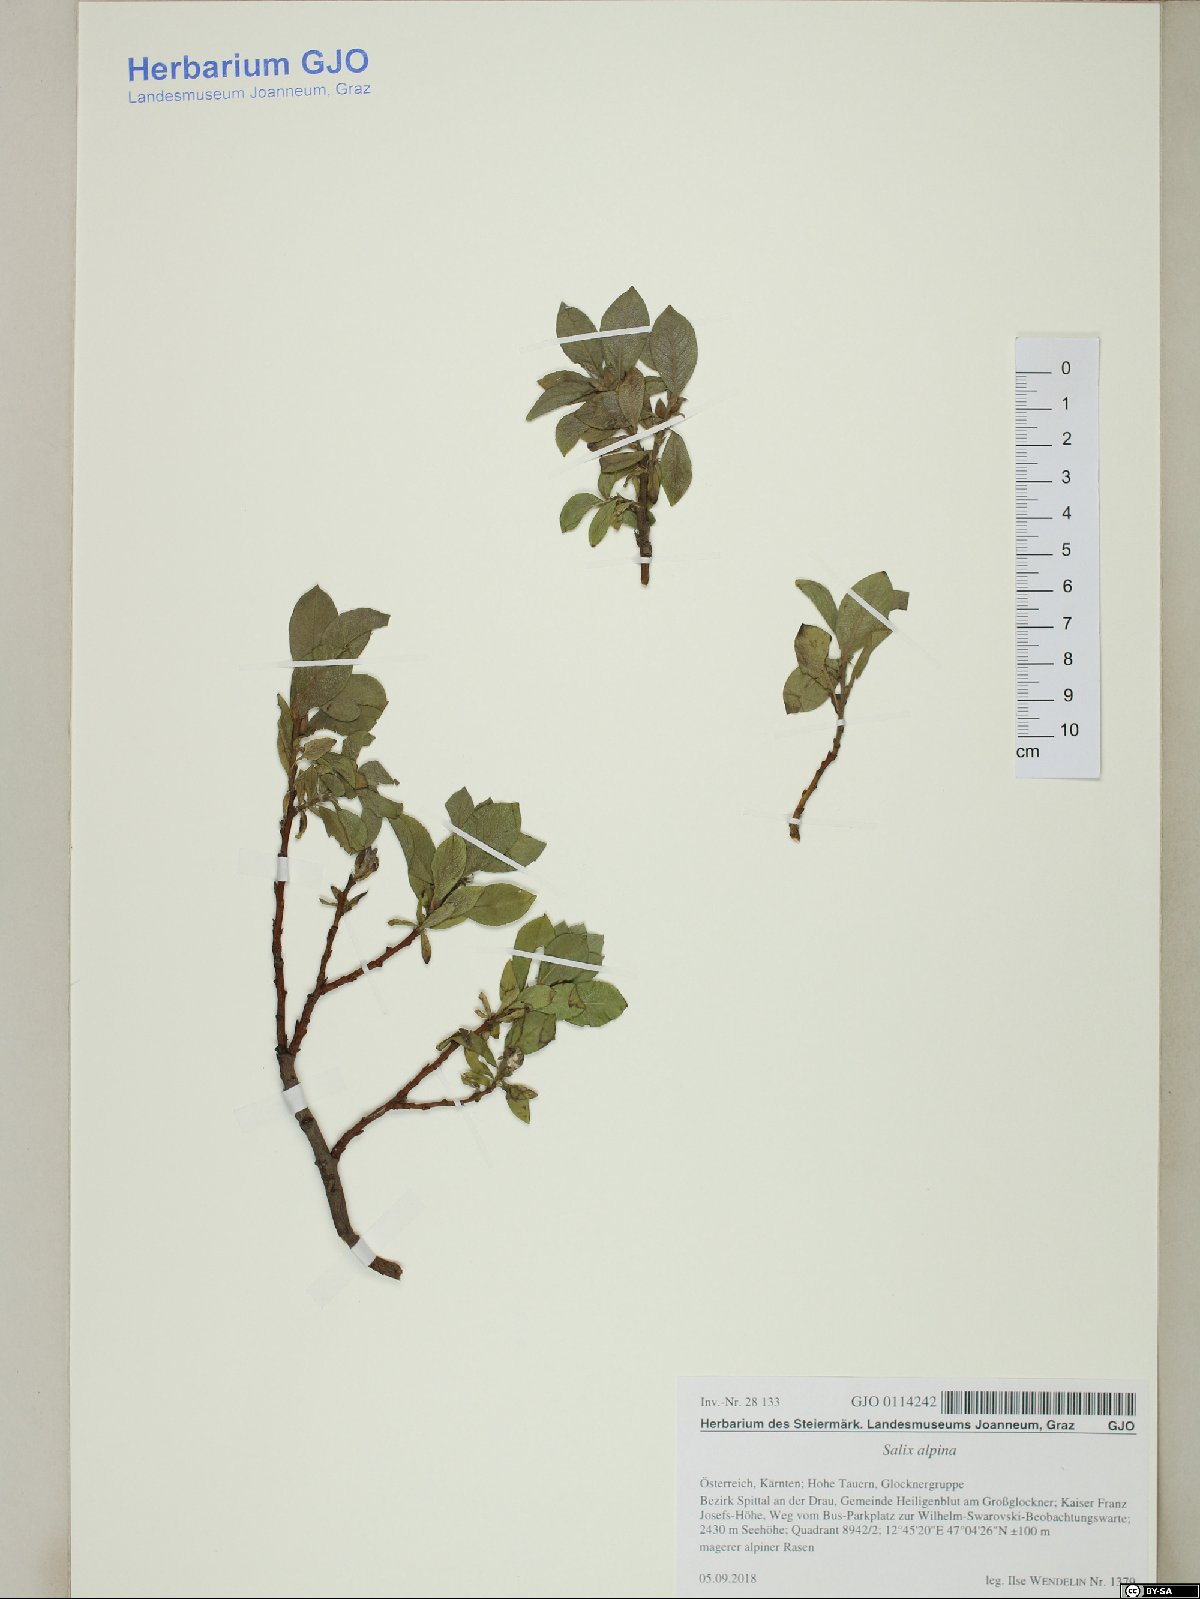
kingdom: Plantae
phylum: Tracheophyta
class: Magnoliopsida
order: Malpighiales
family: Salicaceae
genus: Salix
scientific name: Salix alpina
